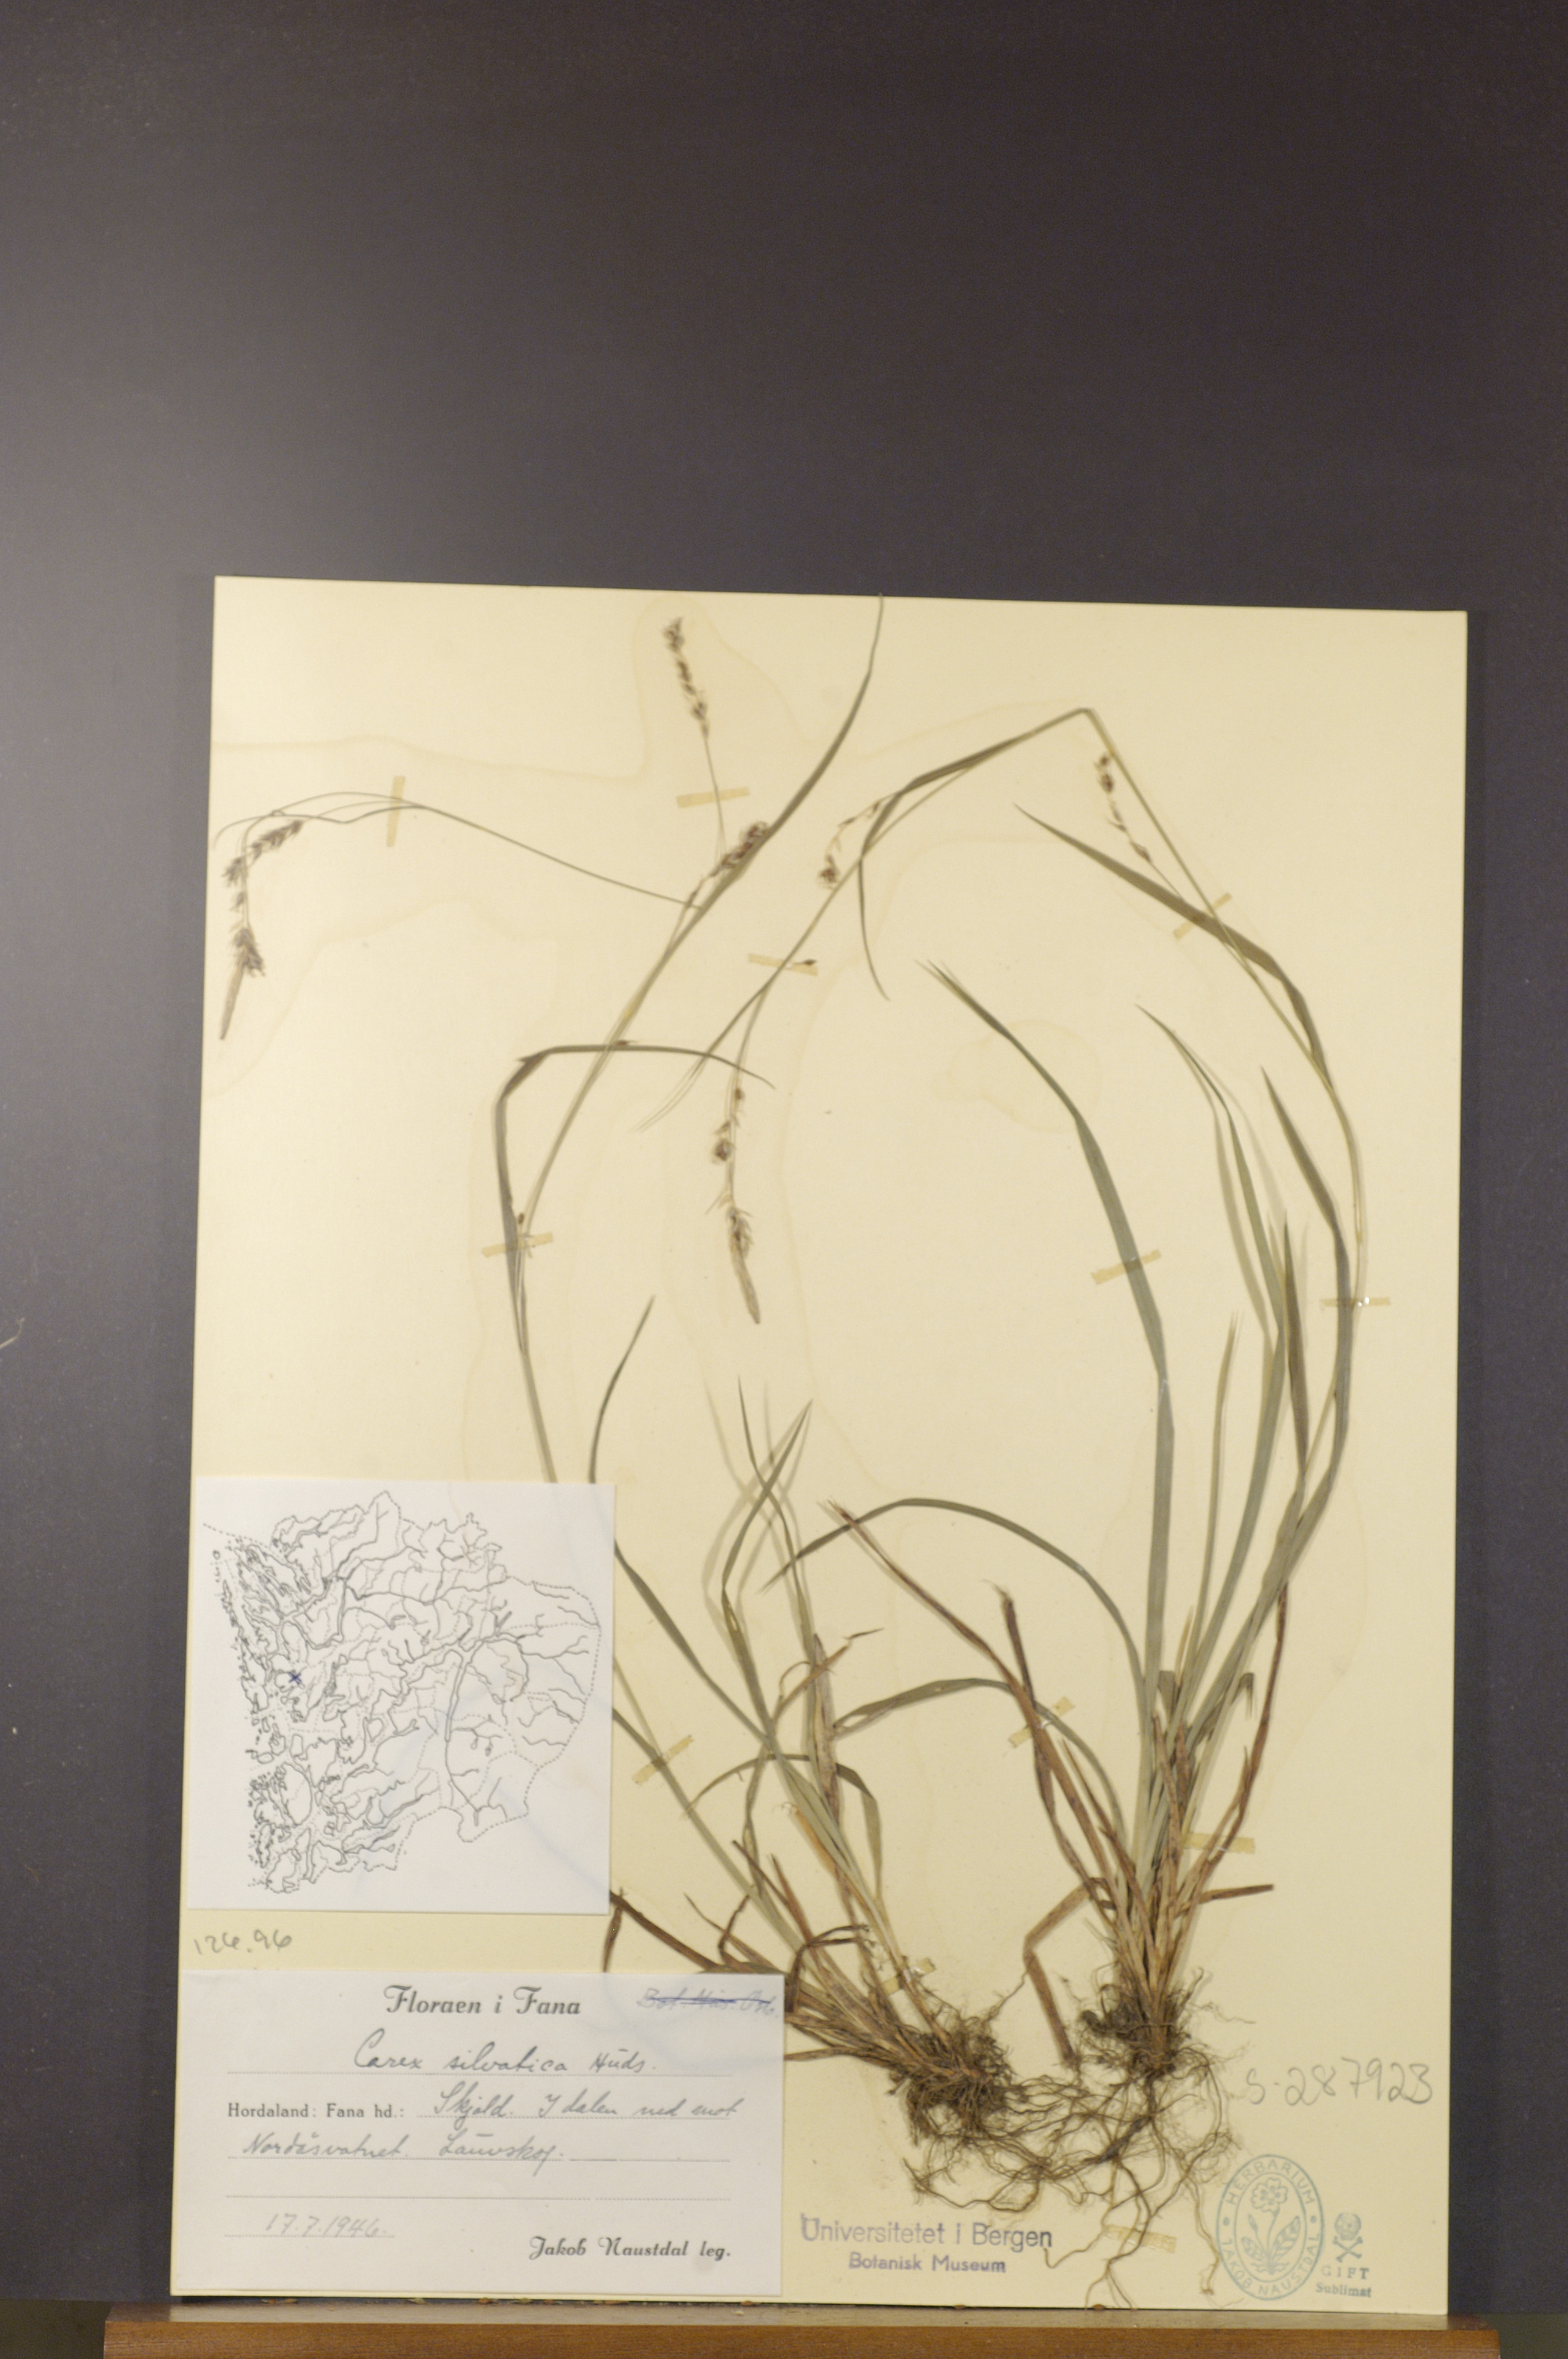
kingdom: Plantae
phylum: Tracheophyta
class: Liliopsida
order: Poales
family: Cyperaceae
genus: Carex
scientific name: Carex sylvatica
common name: Wood-sedge
